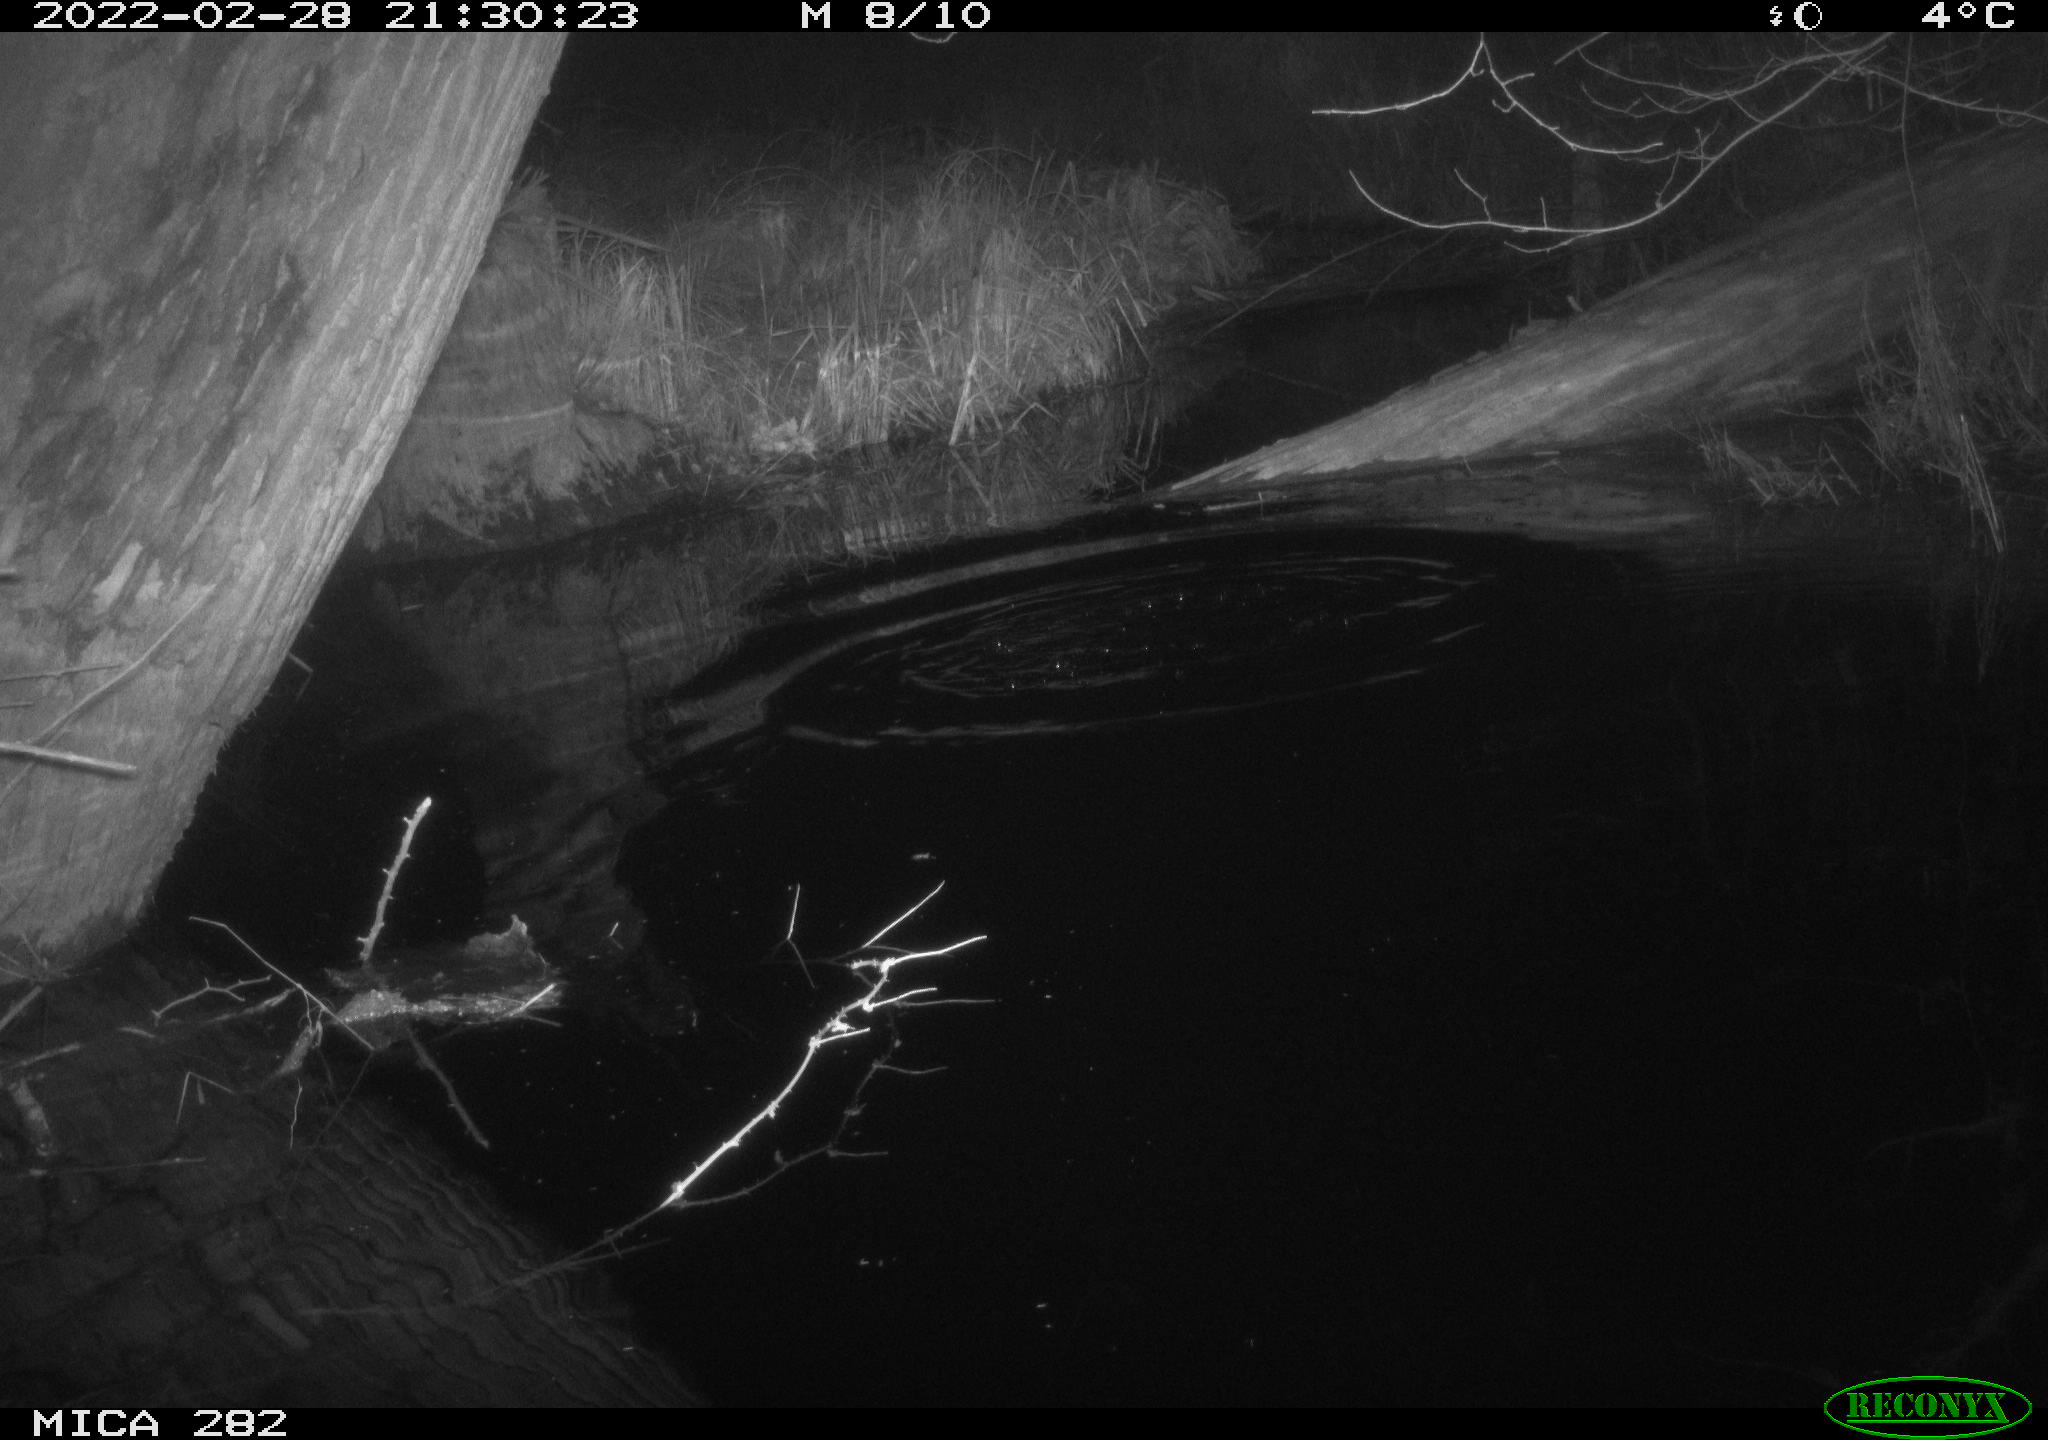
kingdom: Animalia
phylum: Chordata
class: Aves
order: Strigiformes
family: Strigidae
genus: Strix
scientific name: Strix aluco
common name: Tawny owl
